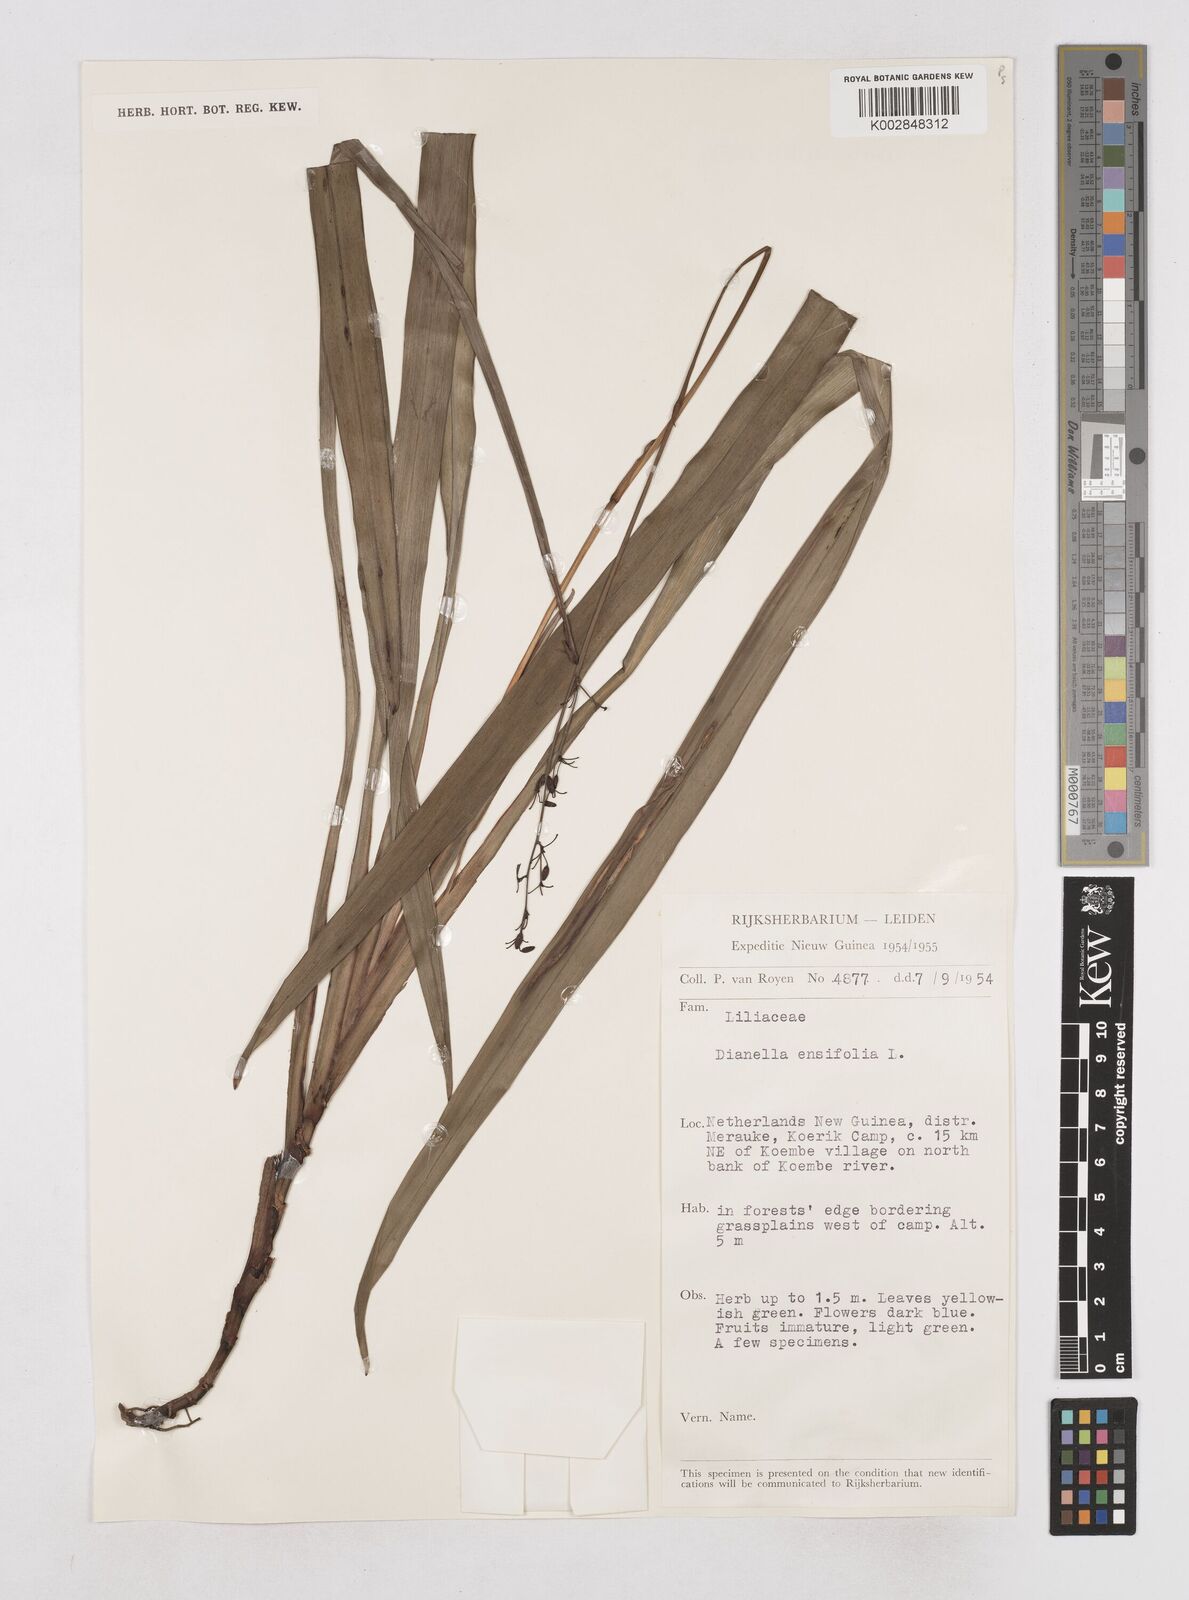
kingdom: Plantae
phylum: Tracheophyta
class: Liliopsida
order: Asparagales
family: Asphodelaceae
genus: Dianella
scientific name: Dianella ensifolia
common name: New zealand lilyplant
